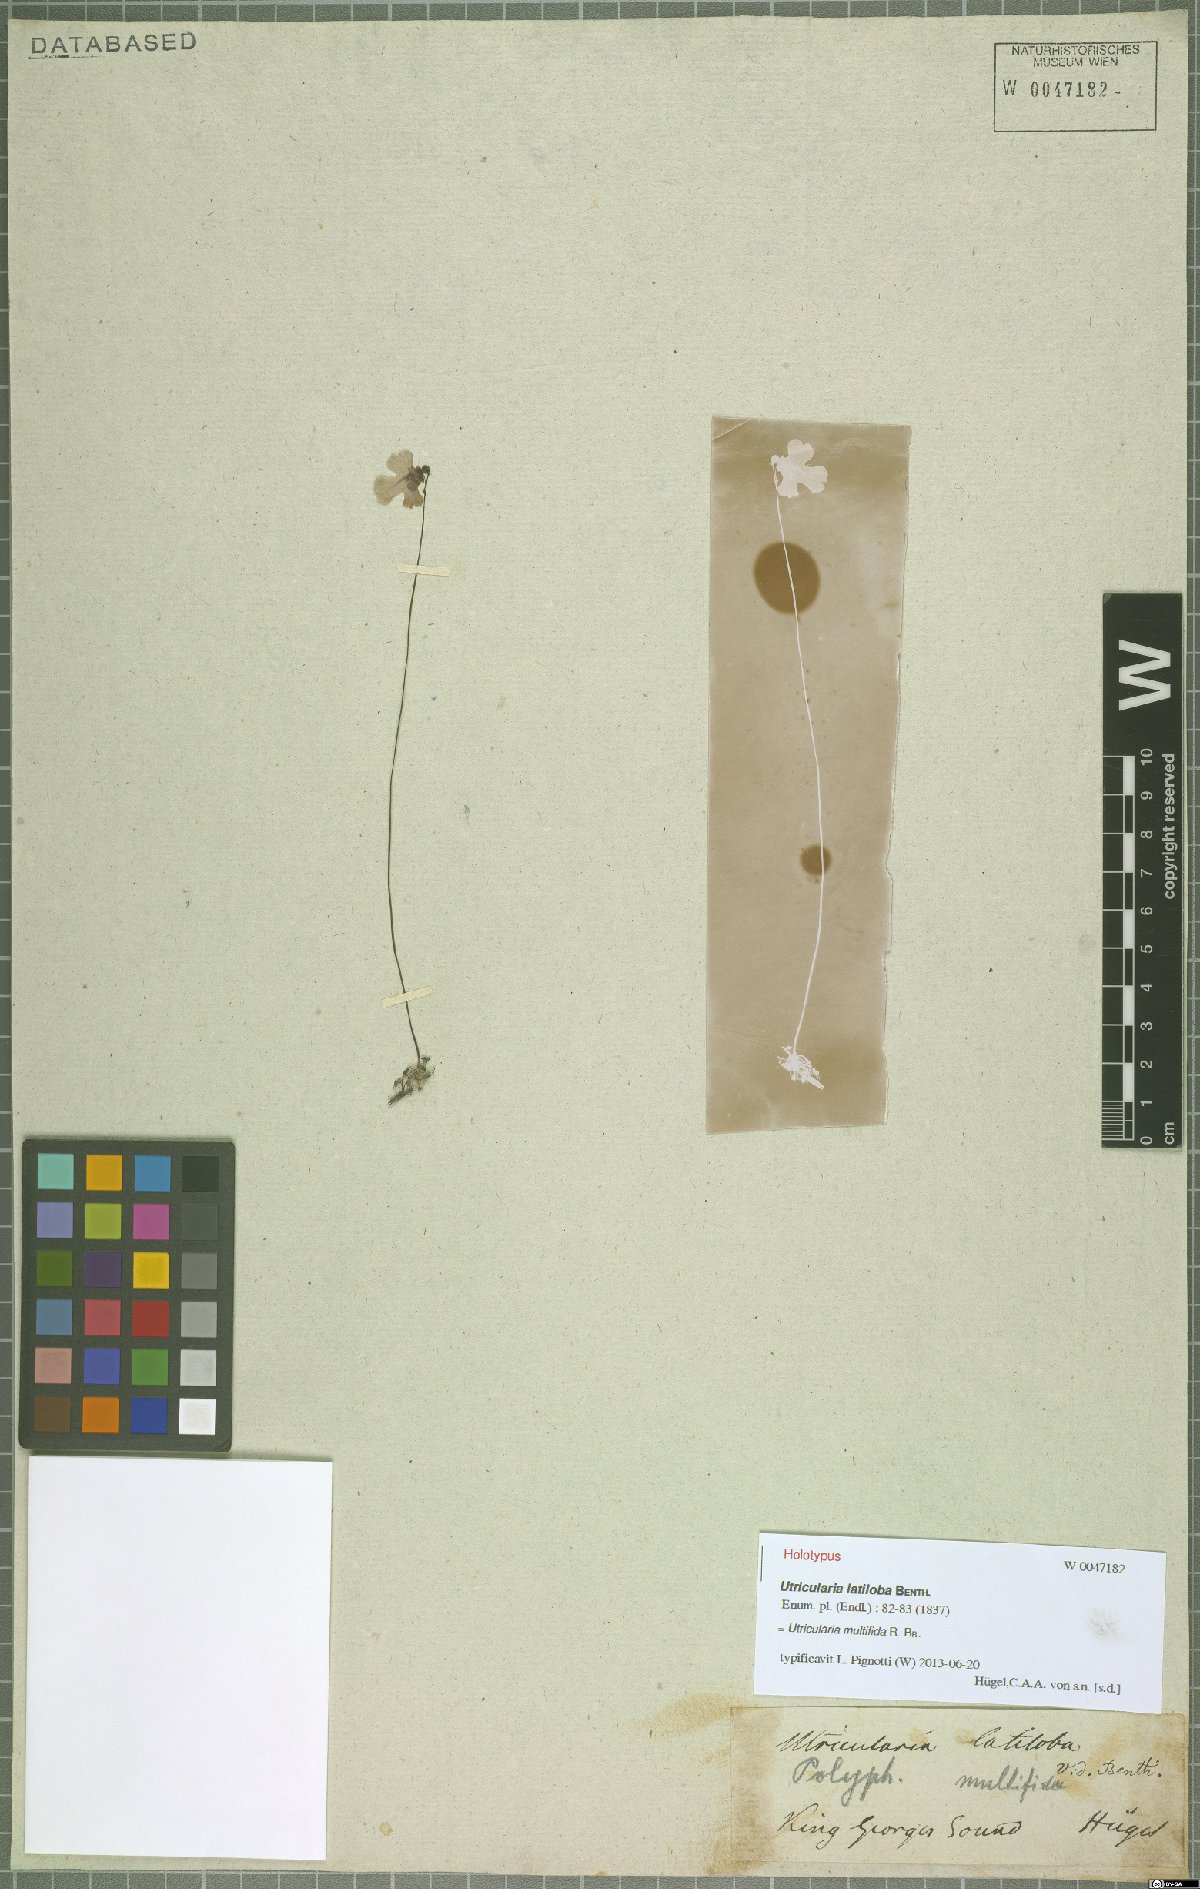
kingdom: Plantae
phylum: Tracheophyta
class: Magnoliopsida
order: Lamiales
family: Lentibulariaceae
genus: Utricularia
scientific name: Utricularia multifida
